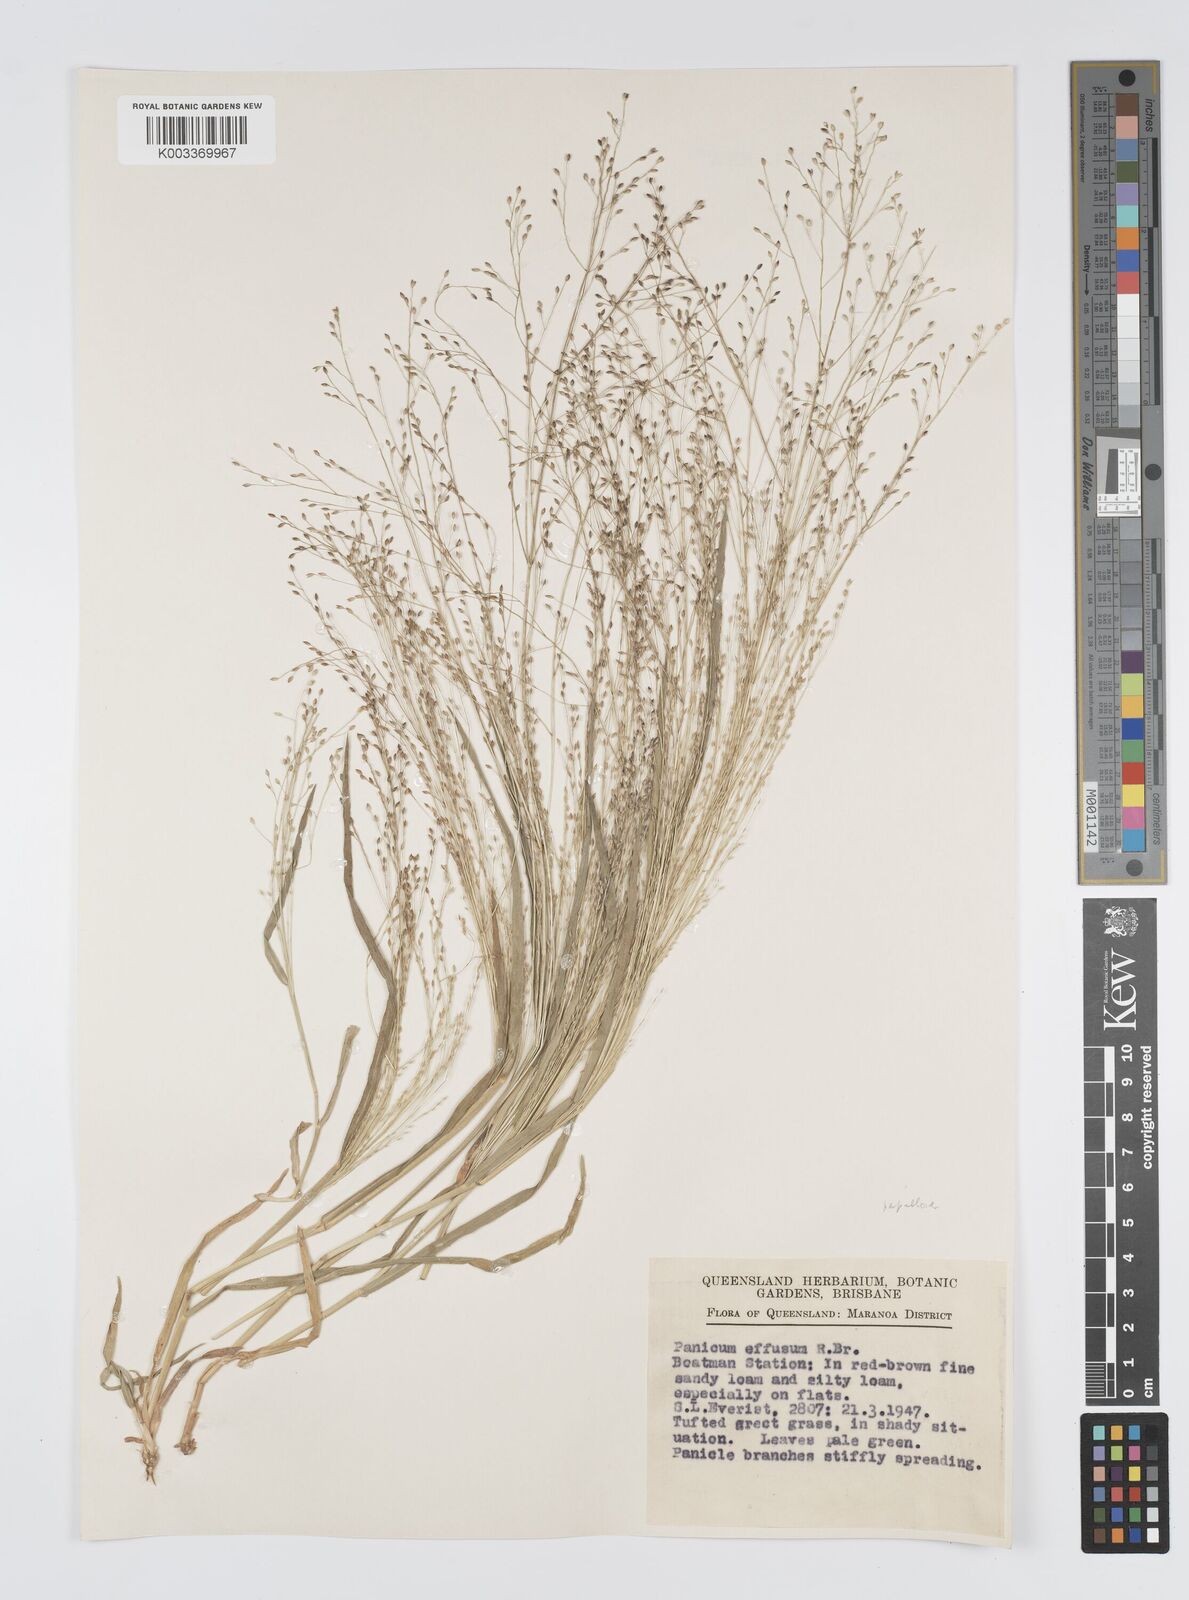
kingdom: Plantae
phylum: Tracheophyta
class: Liliopsida
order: Poales
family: Poaceae
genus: Panicum
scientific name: Panicum effusum
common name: Hairy panic grass
